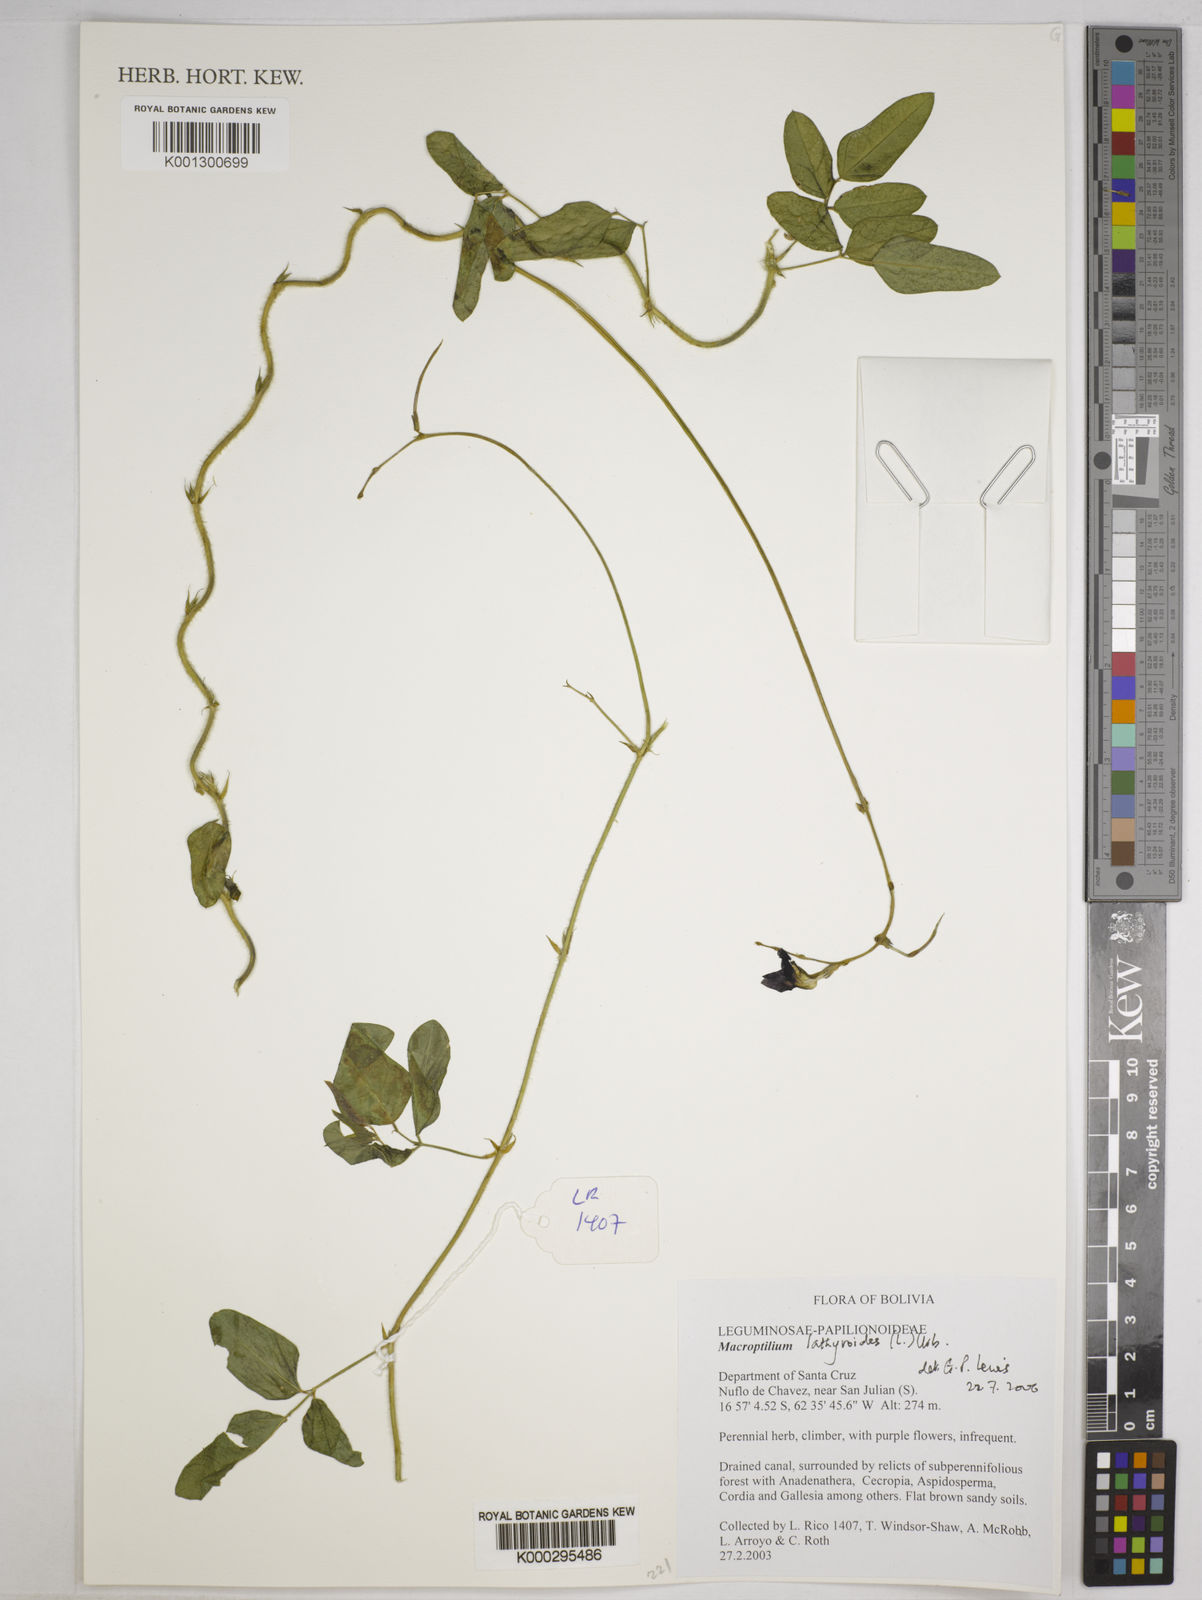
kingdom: Plantae
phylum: Tracheophyta
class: Magnoliopsida
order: Fabales
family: Fabaceae
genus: Macroptilium
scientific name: Macroptilium lathyroides
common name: Wild bushbean
